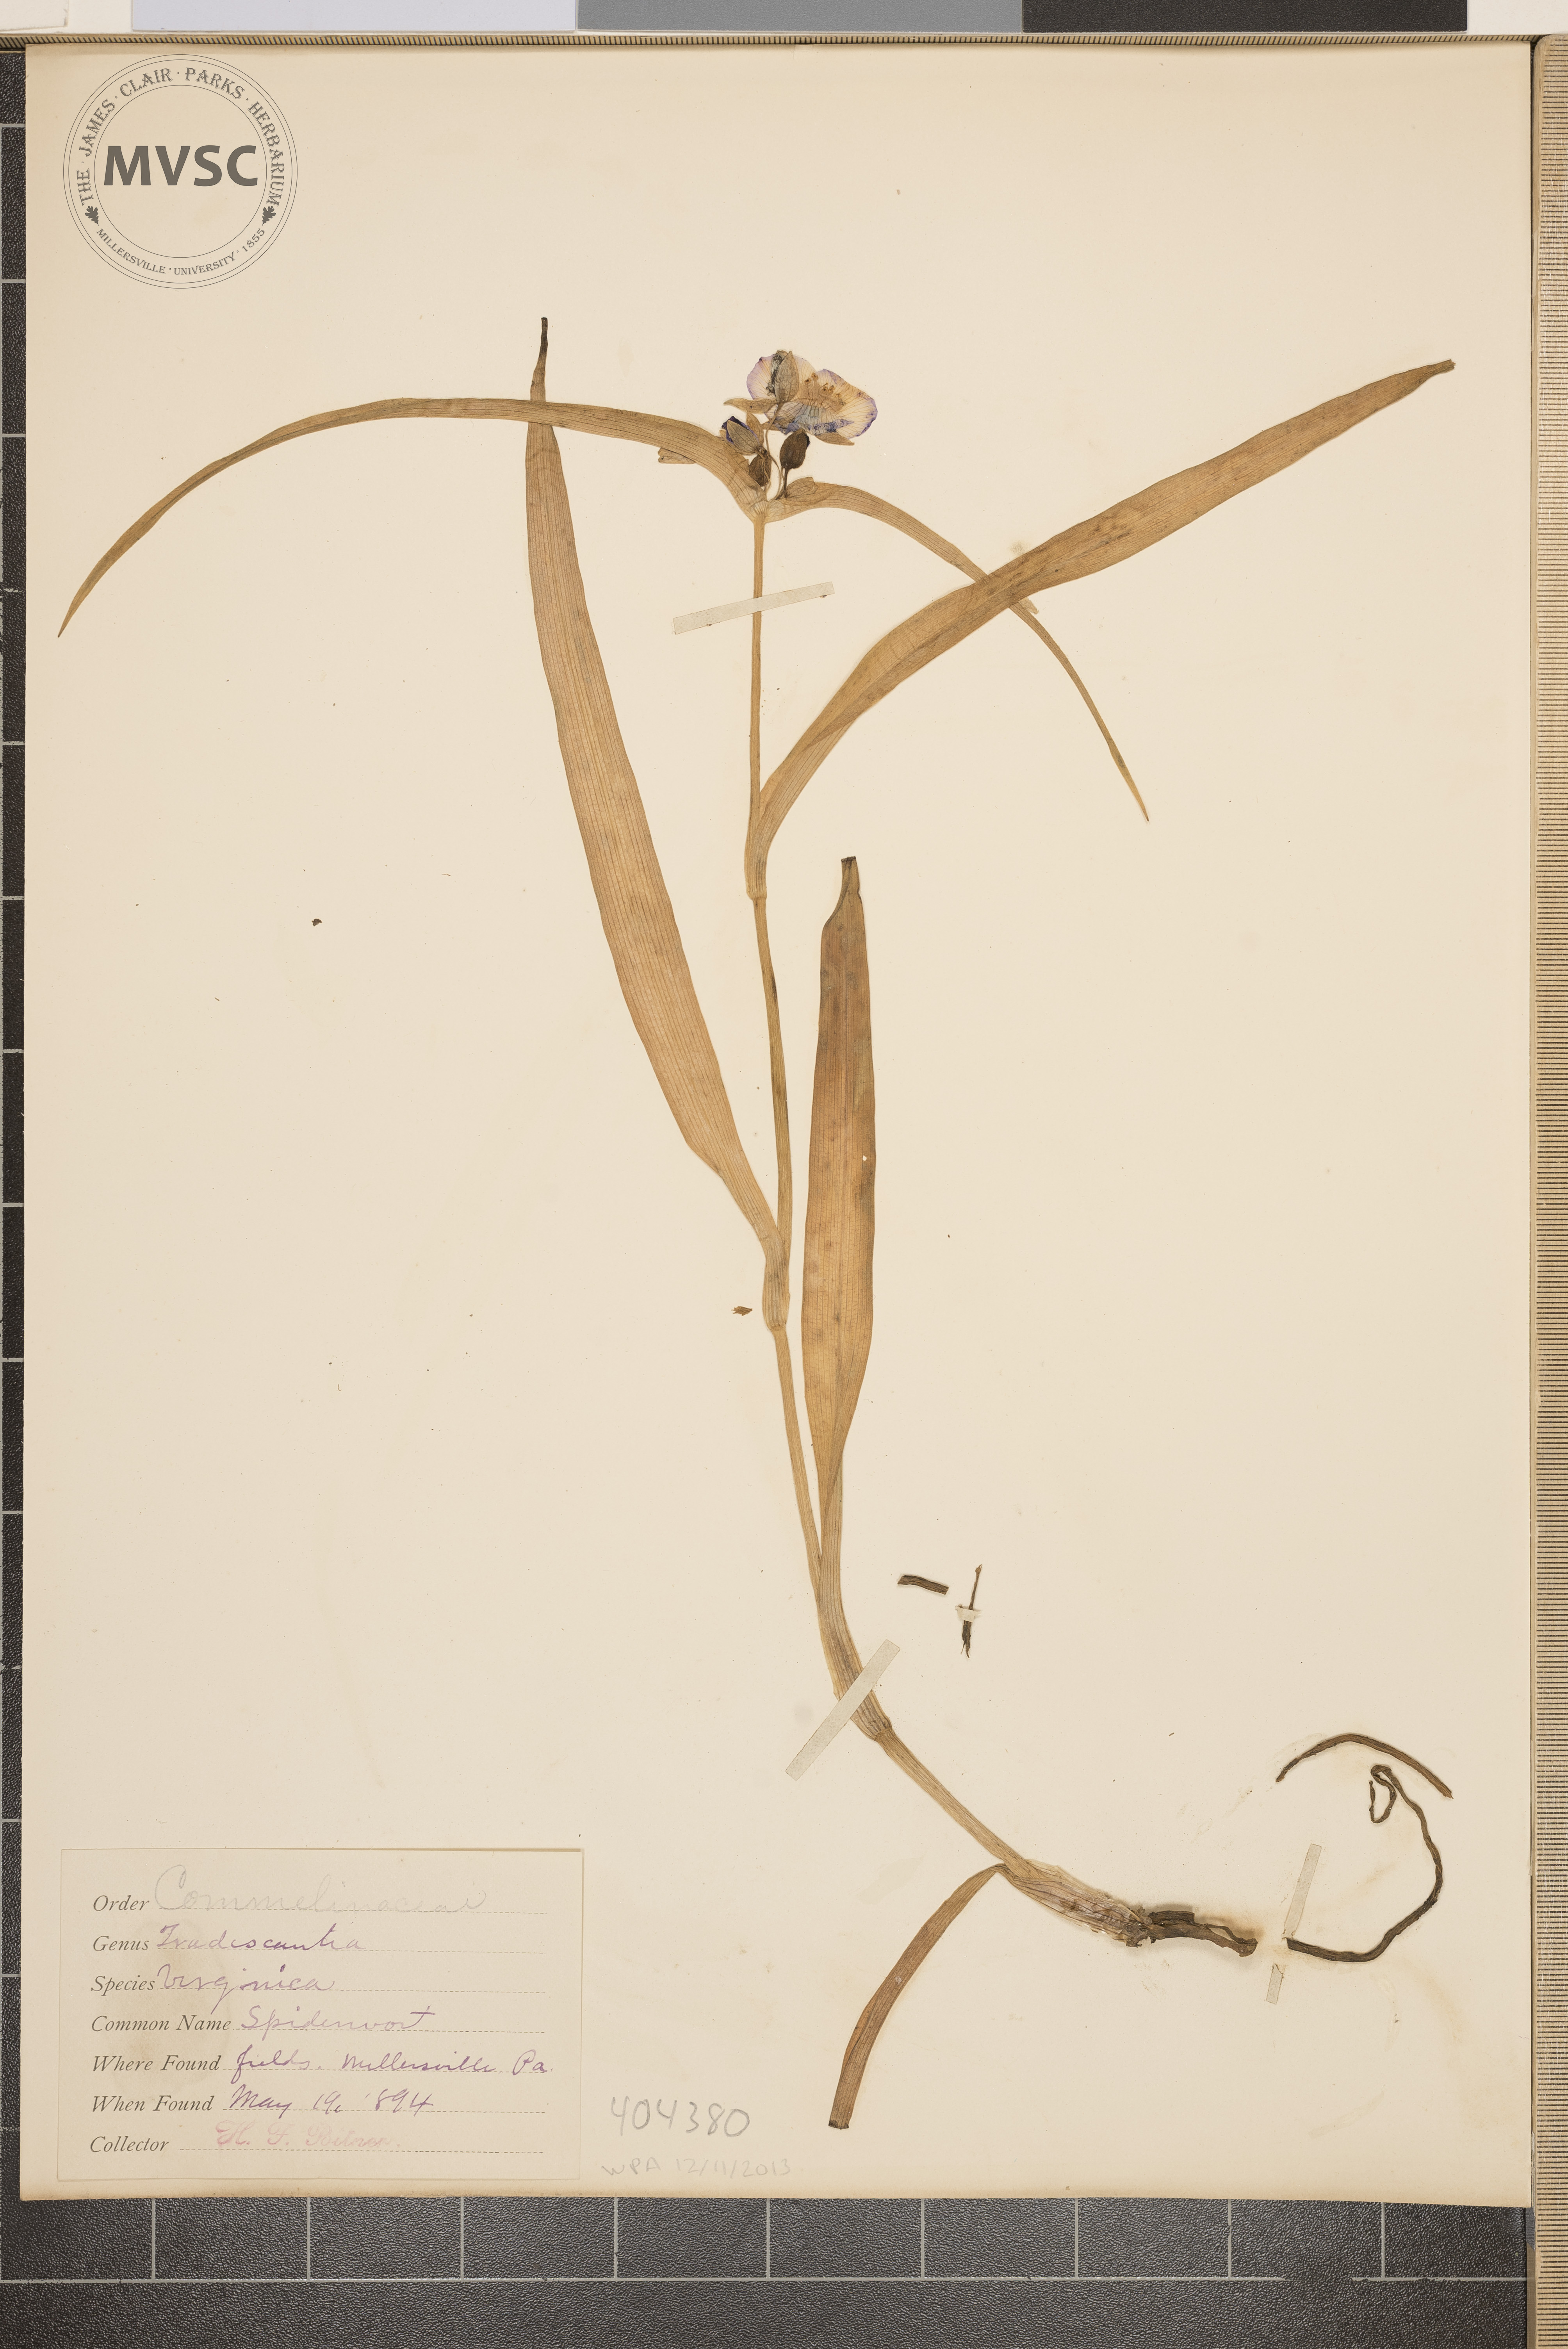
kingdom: Plantae
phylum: Tracheophyta
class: Liliopsida
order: Commelinales
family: Commelinaceae
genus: Tradescantia
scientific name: Tradescantia virginiana
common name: Spiderwort
